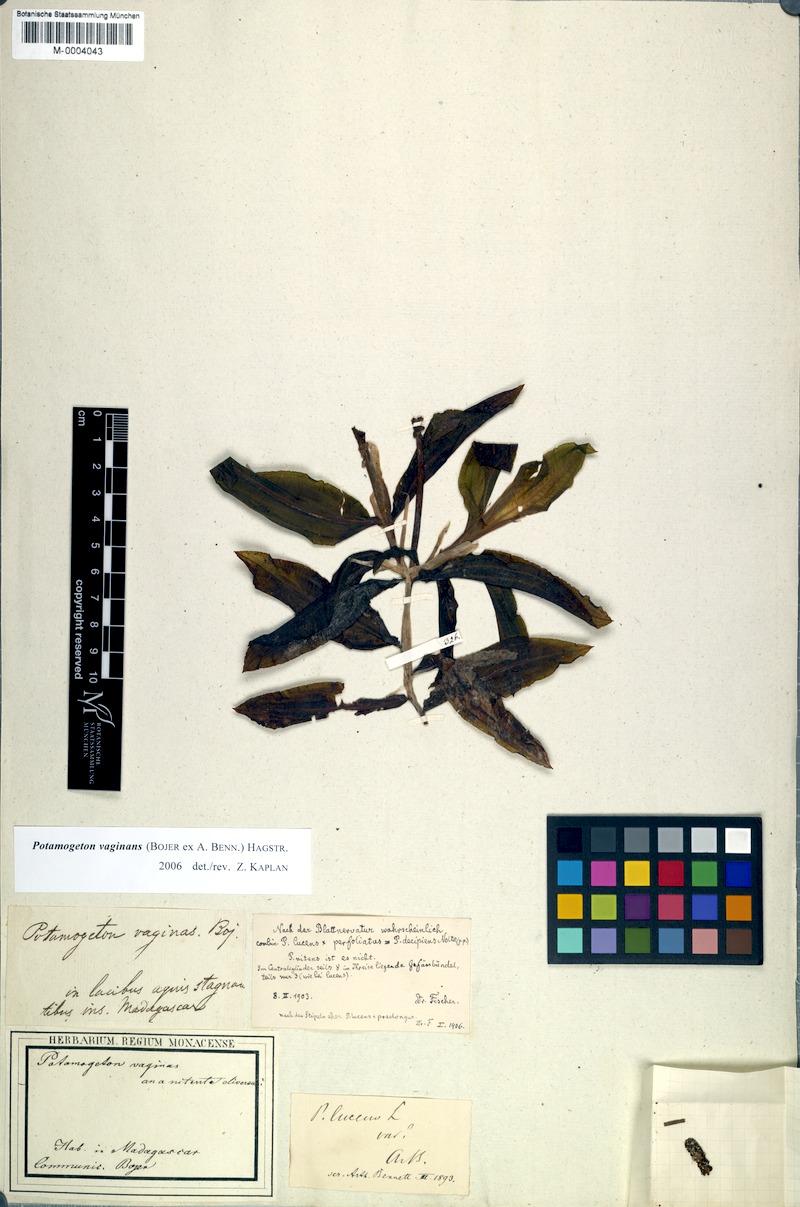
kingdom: Plantae
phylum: Tracheophyta
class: Liliopsida
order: Alismatales
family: Potamogetonaceae
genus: Potamogeton
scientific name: Potamogeton lucens
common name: Shining pondweed
